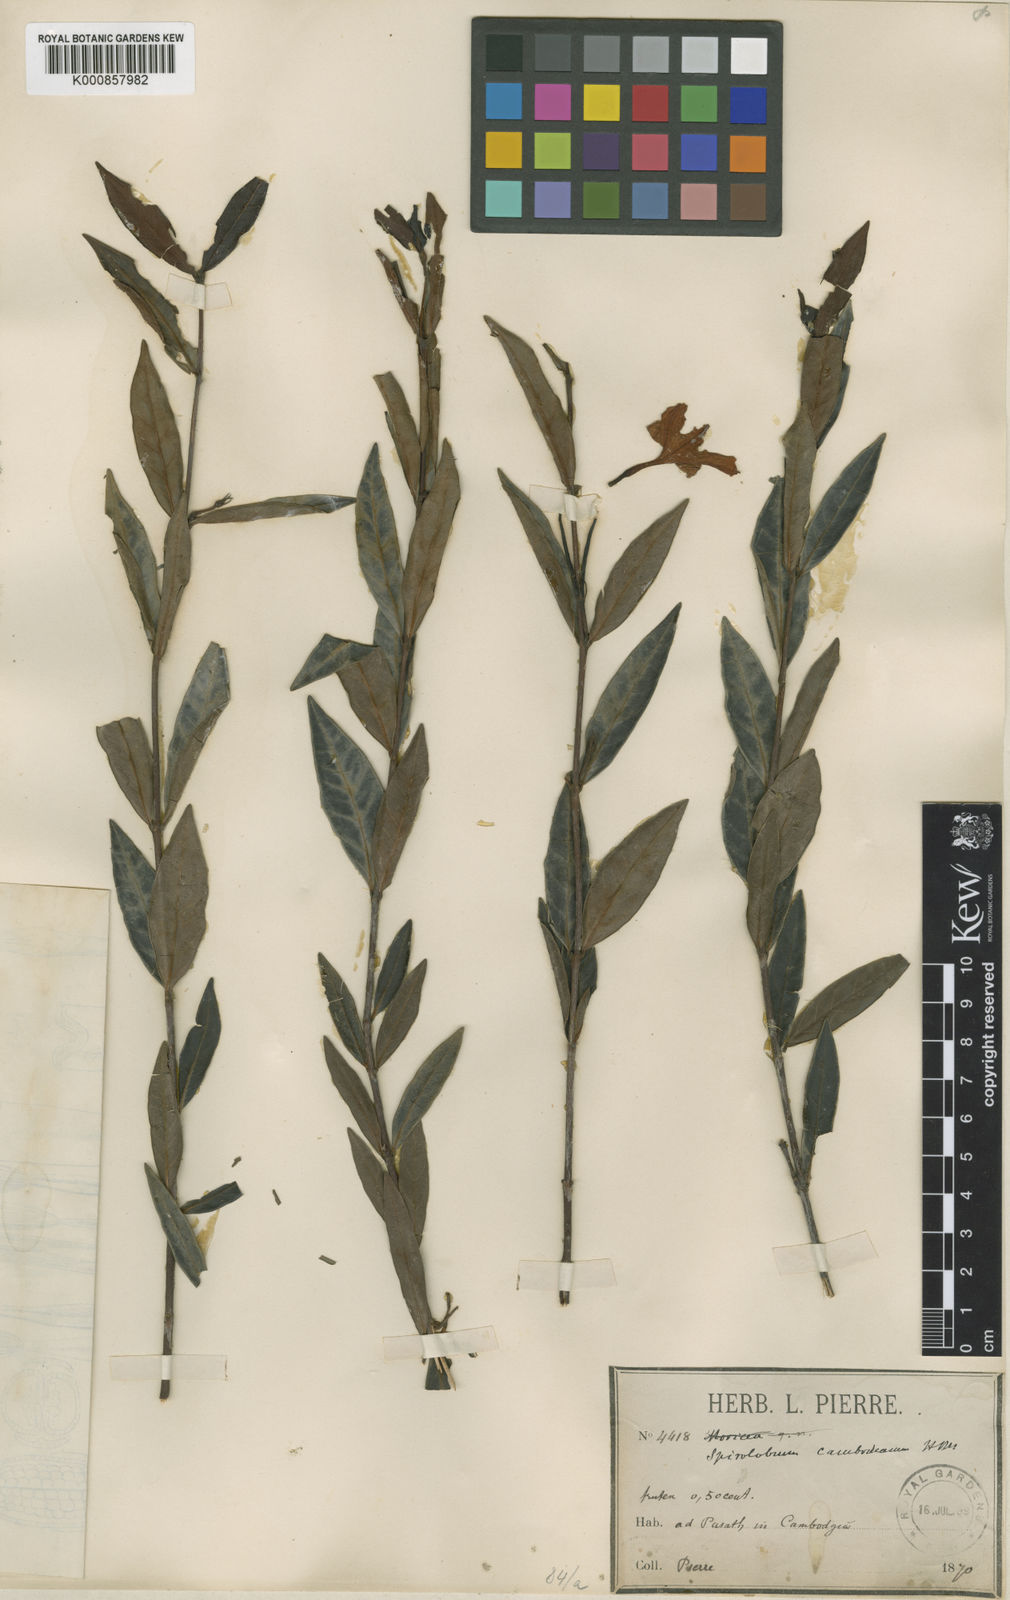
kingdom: Plantae
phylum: Tracheophyta
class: Magnoliopsida
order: Gentianales
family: Apocynaceae
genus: Spirolobium
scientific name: Spirolobium cambodianum
